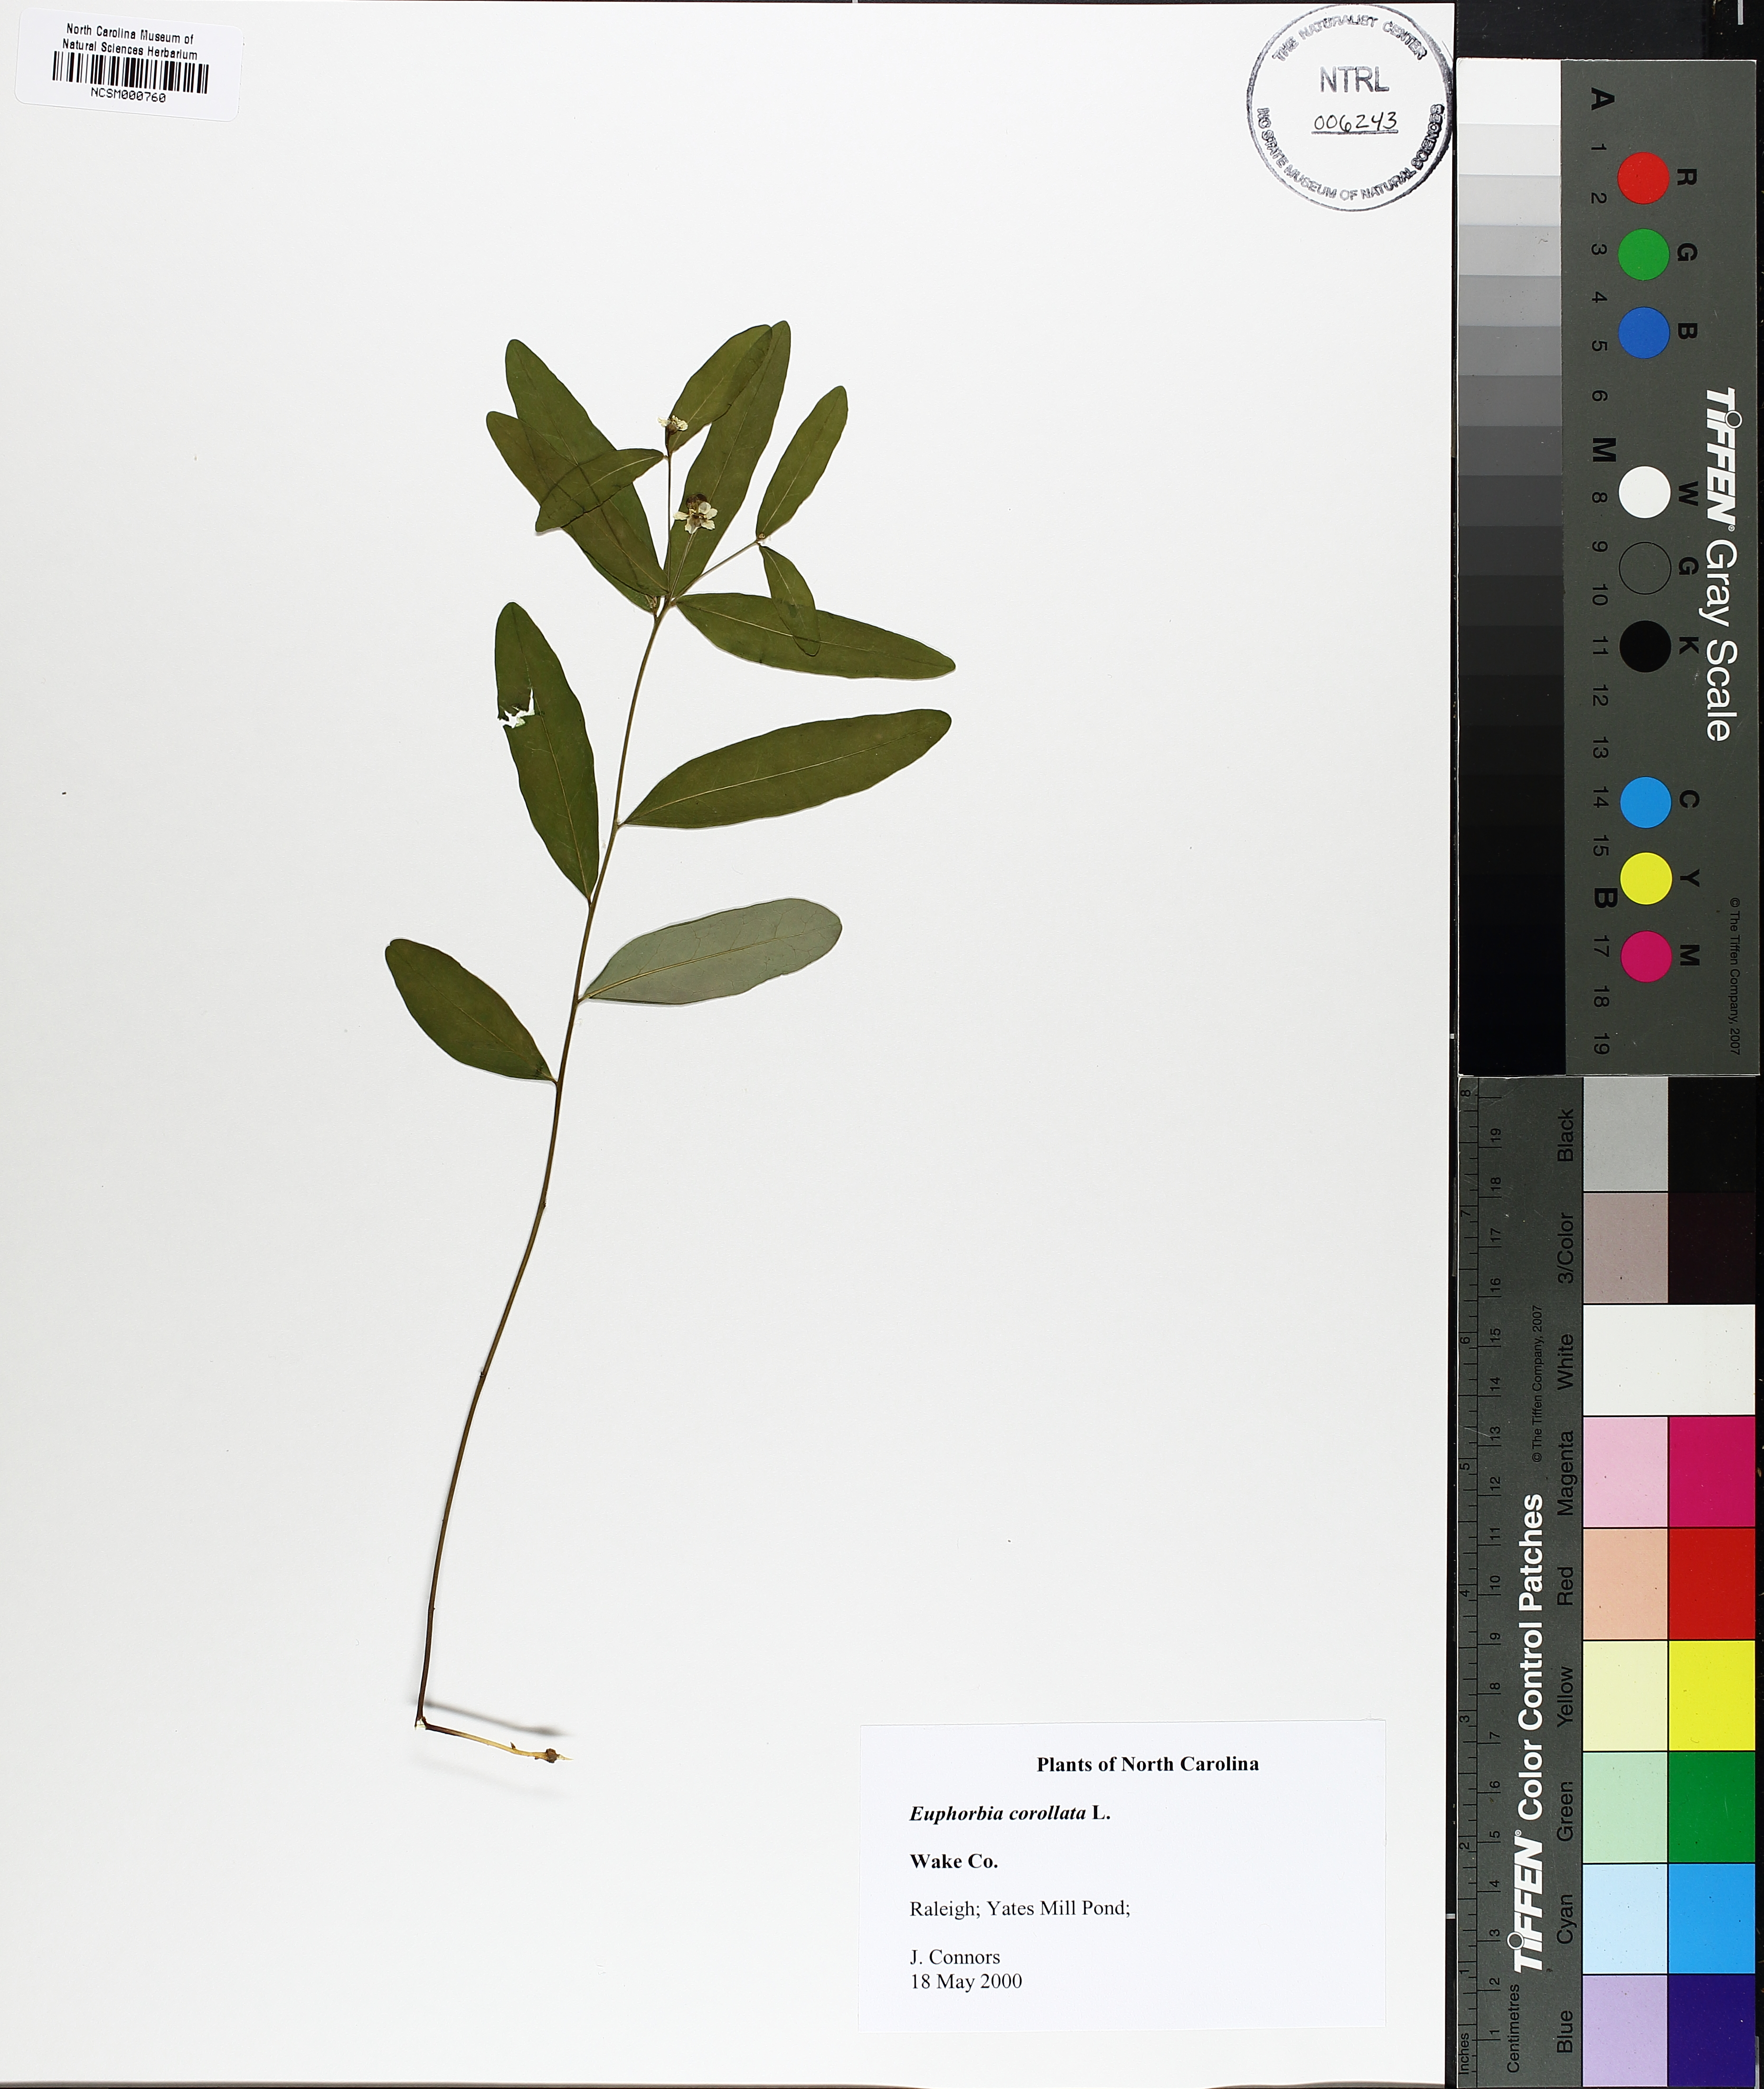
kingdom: Plantae
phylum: Tracheophyta
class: Magnoliopsida
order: Malpighiales
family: Euphorbiaceae
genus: Euphorbia
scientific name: Euphorbia corollata
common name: Flowering spurge
